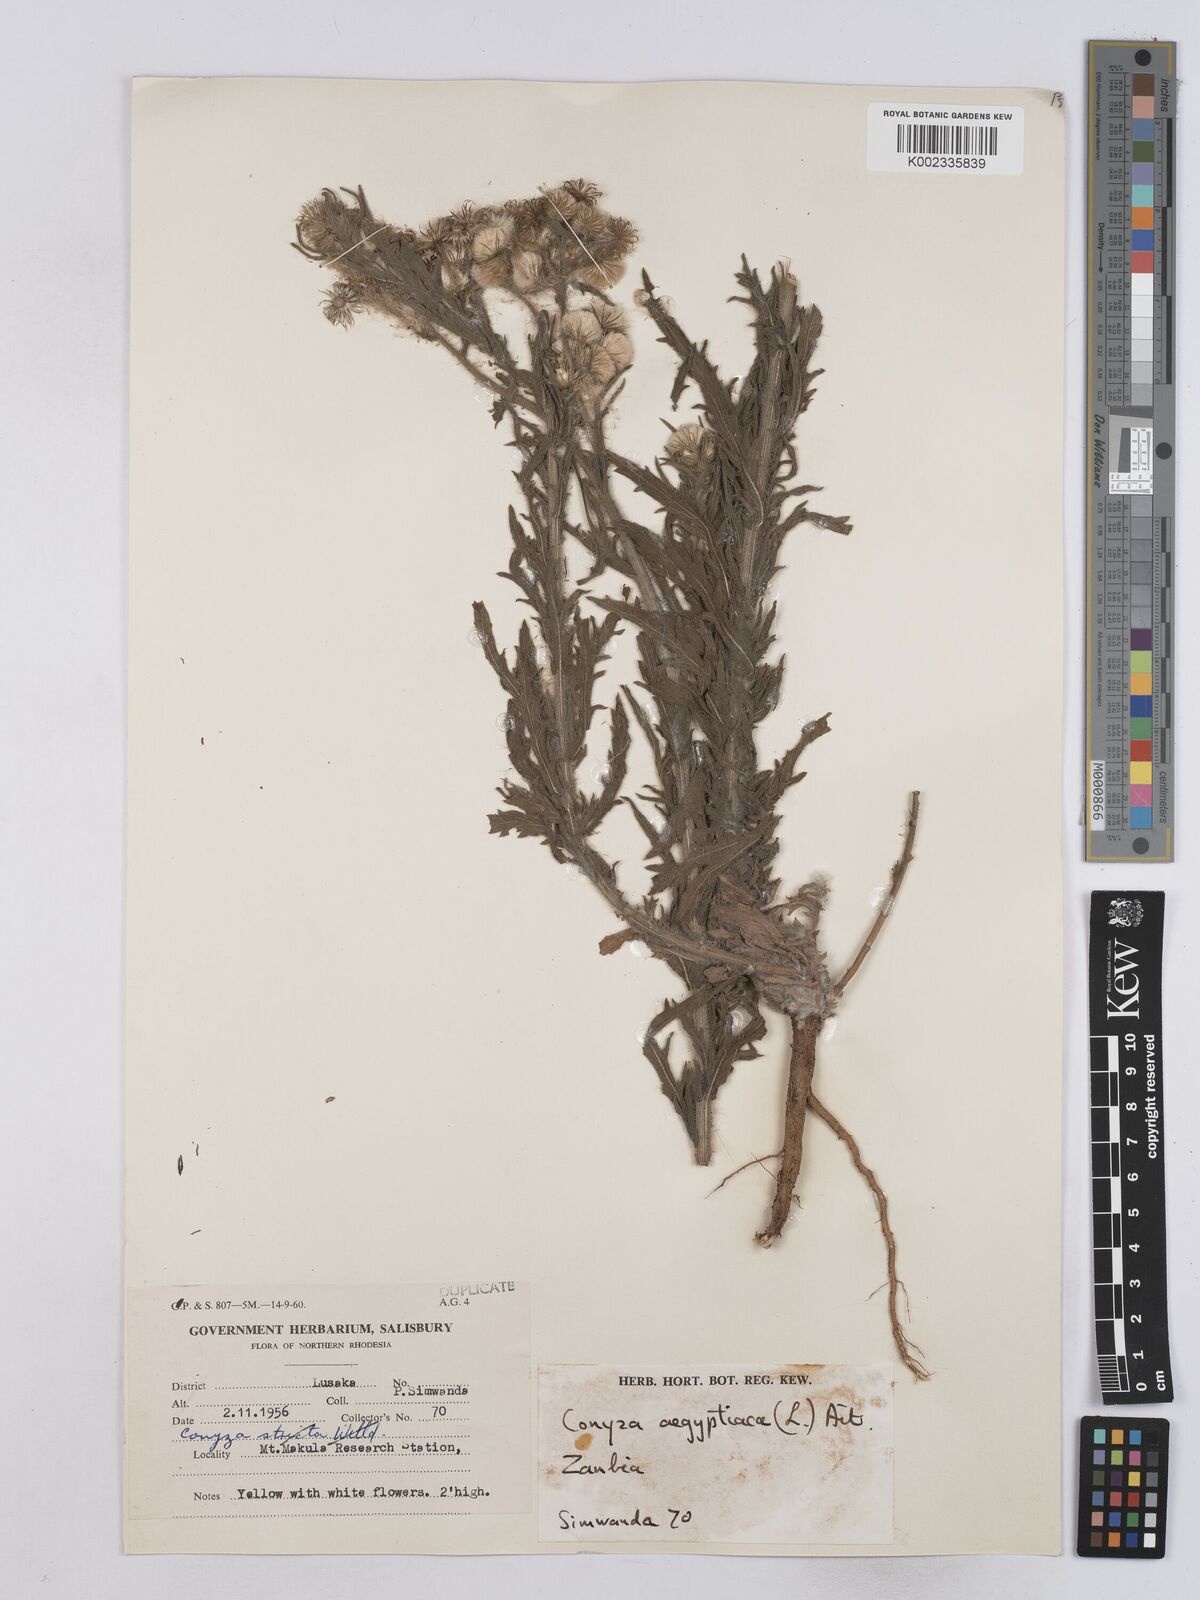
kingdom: Plantae
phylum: Tracheophyta
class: Magnoliopsida
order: Asterales
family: Asteraceae
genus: Nidorella
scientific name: Nidorella aegyptiaca
